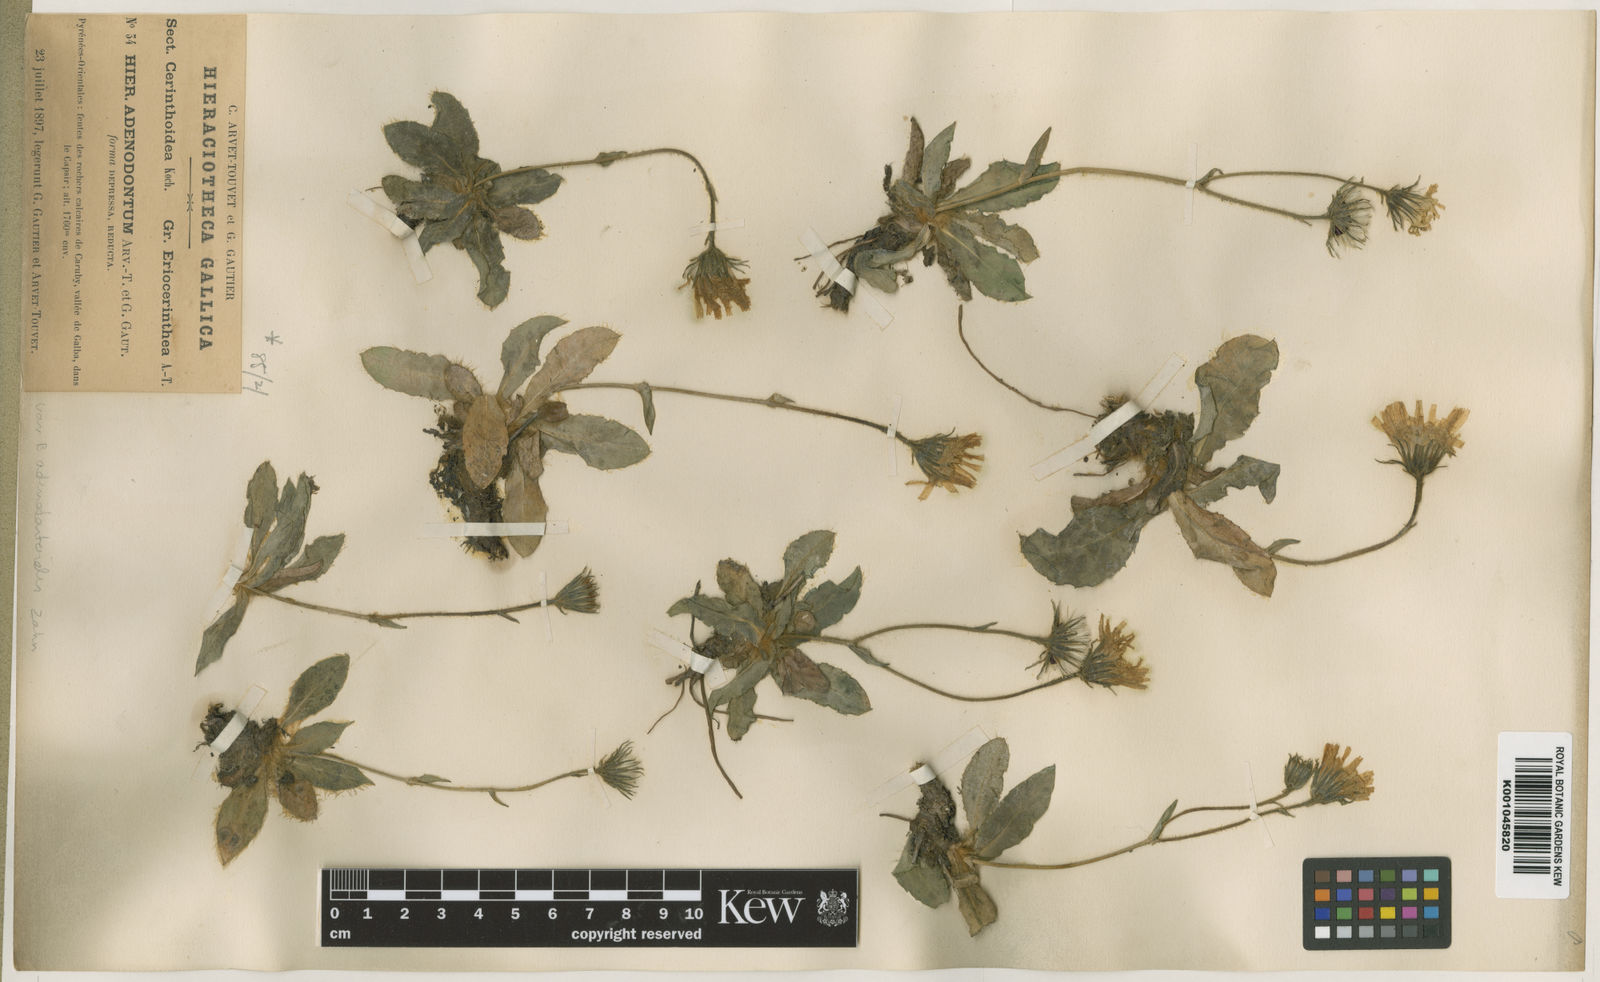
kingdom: Plantae
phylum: Tracheophyta
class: Magnoliopsida
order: Asterales
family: Asteraceae
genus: Hieracium
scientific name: Hieracium benascanum
